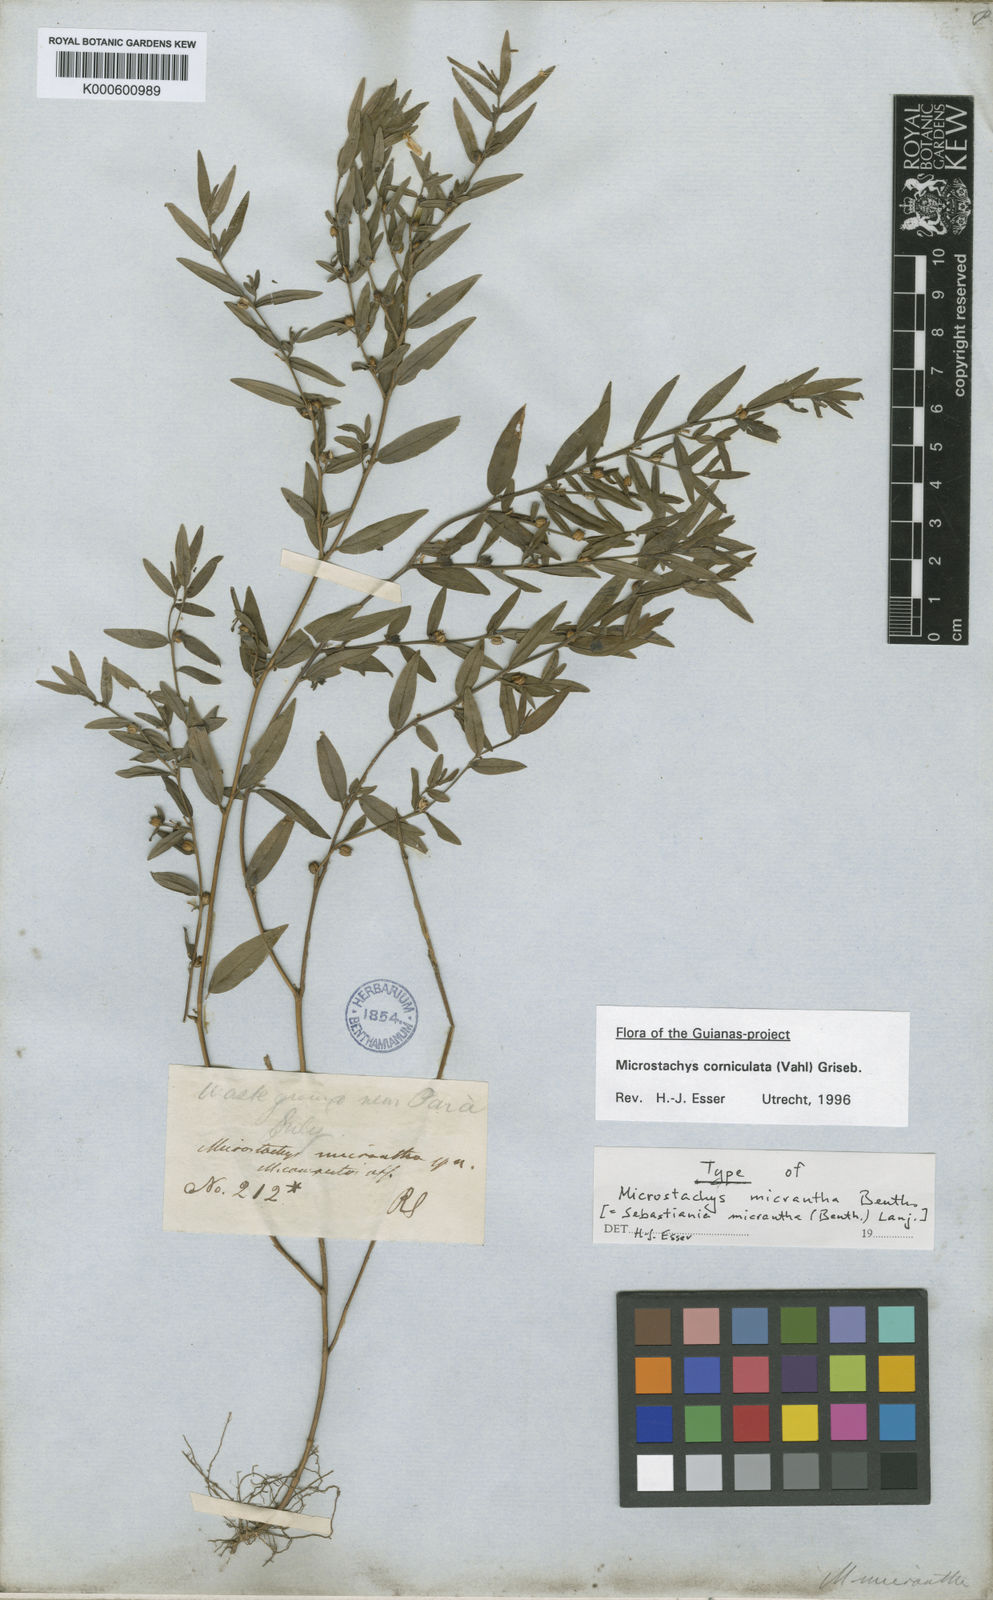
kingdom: Plantae
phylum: Tracheophyta
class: Magnoliopsida
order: Malpighiales
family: Euphorbiaceae
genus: Sebastiania
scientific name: Sebastiania
